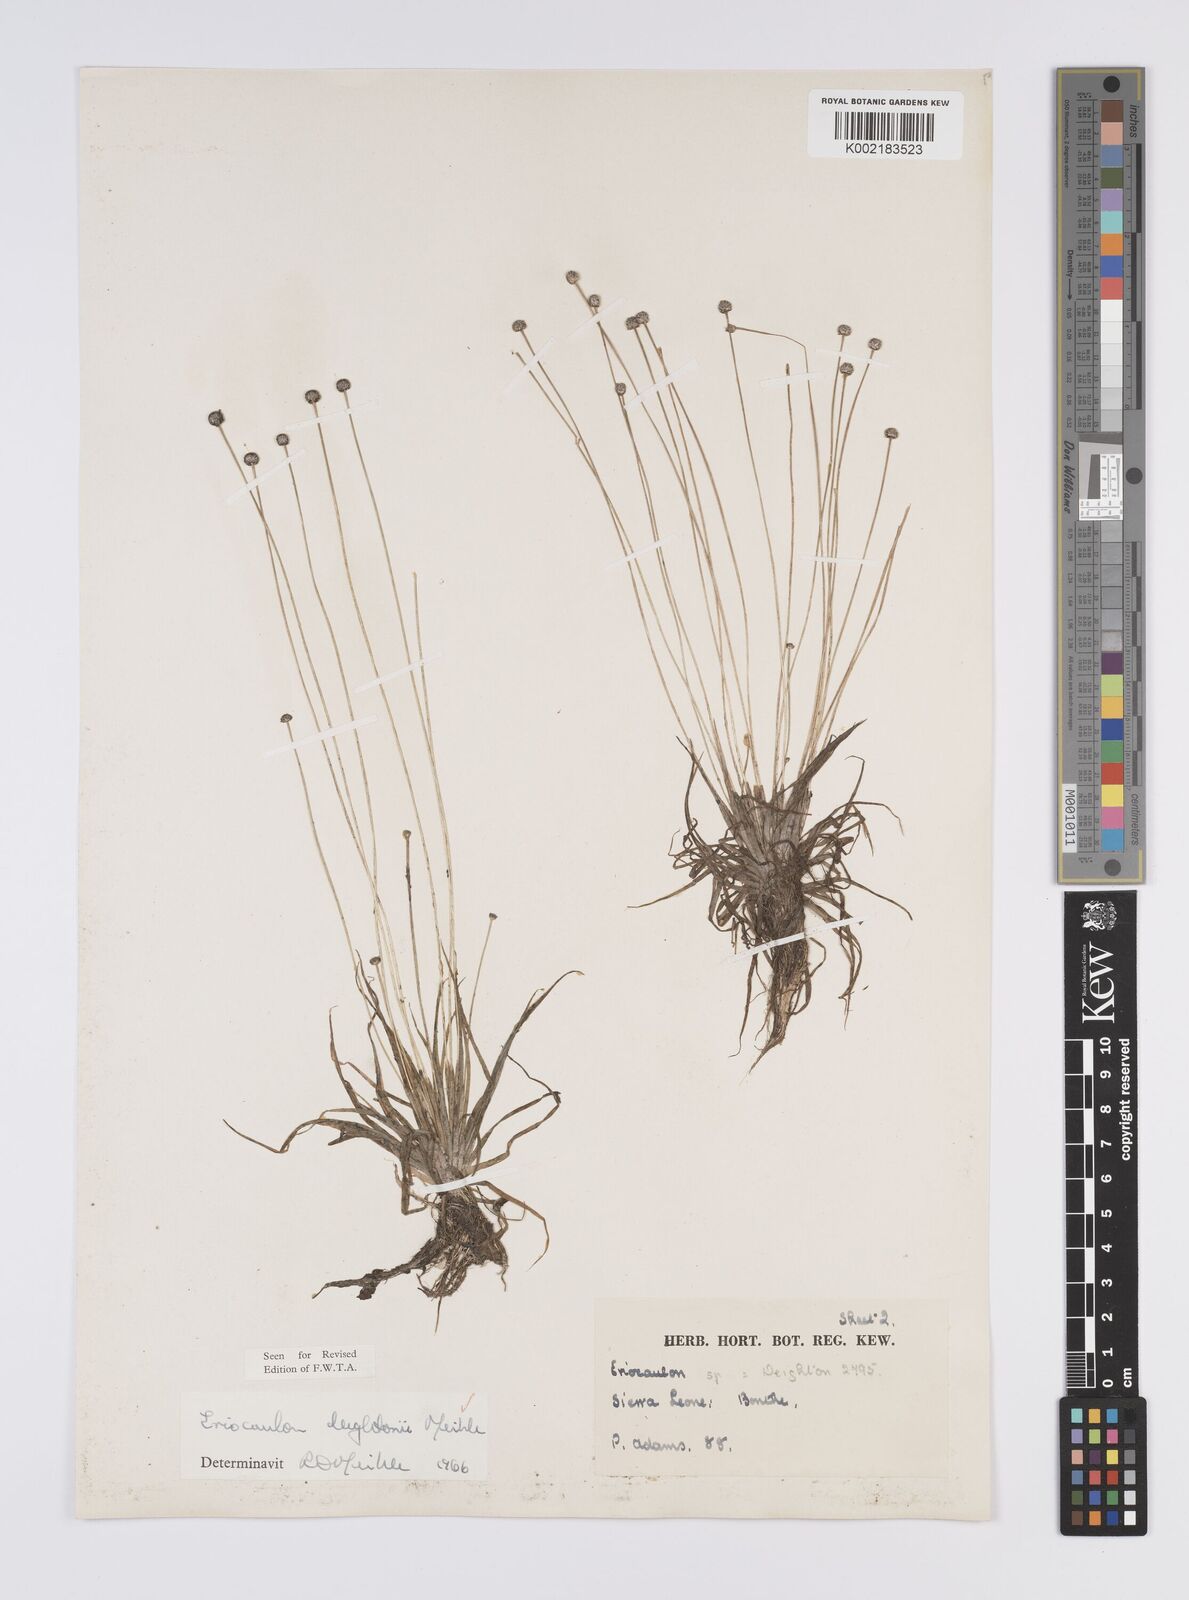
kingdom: Plantae
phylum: Tracheophyta
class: Liliopsida
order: Poales
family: Eriocaulaceae
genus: Eriocaulon
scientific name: Eriocaulon deightonii
